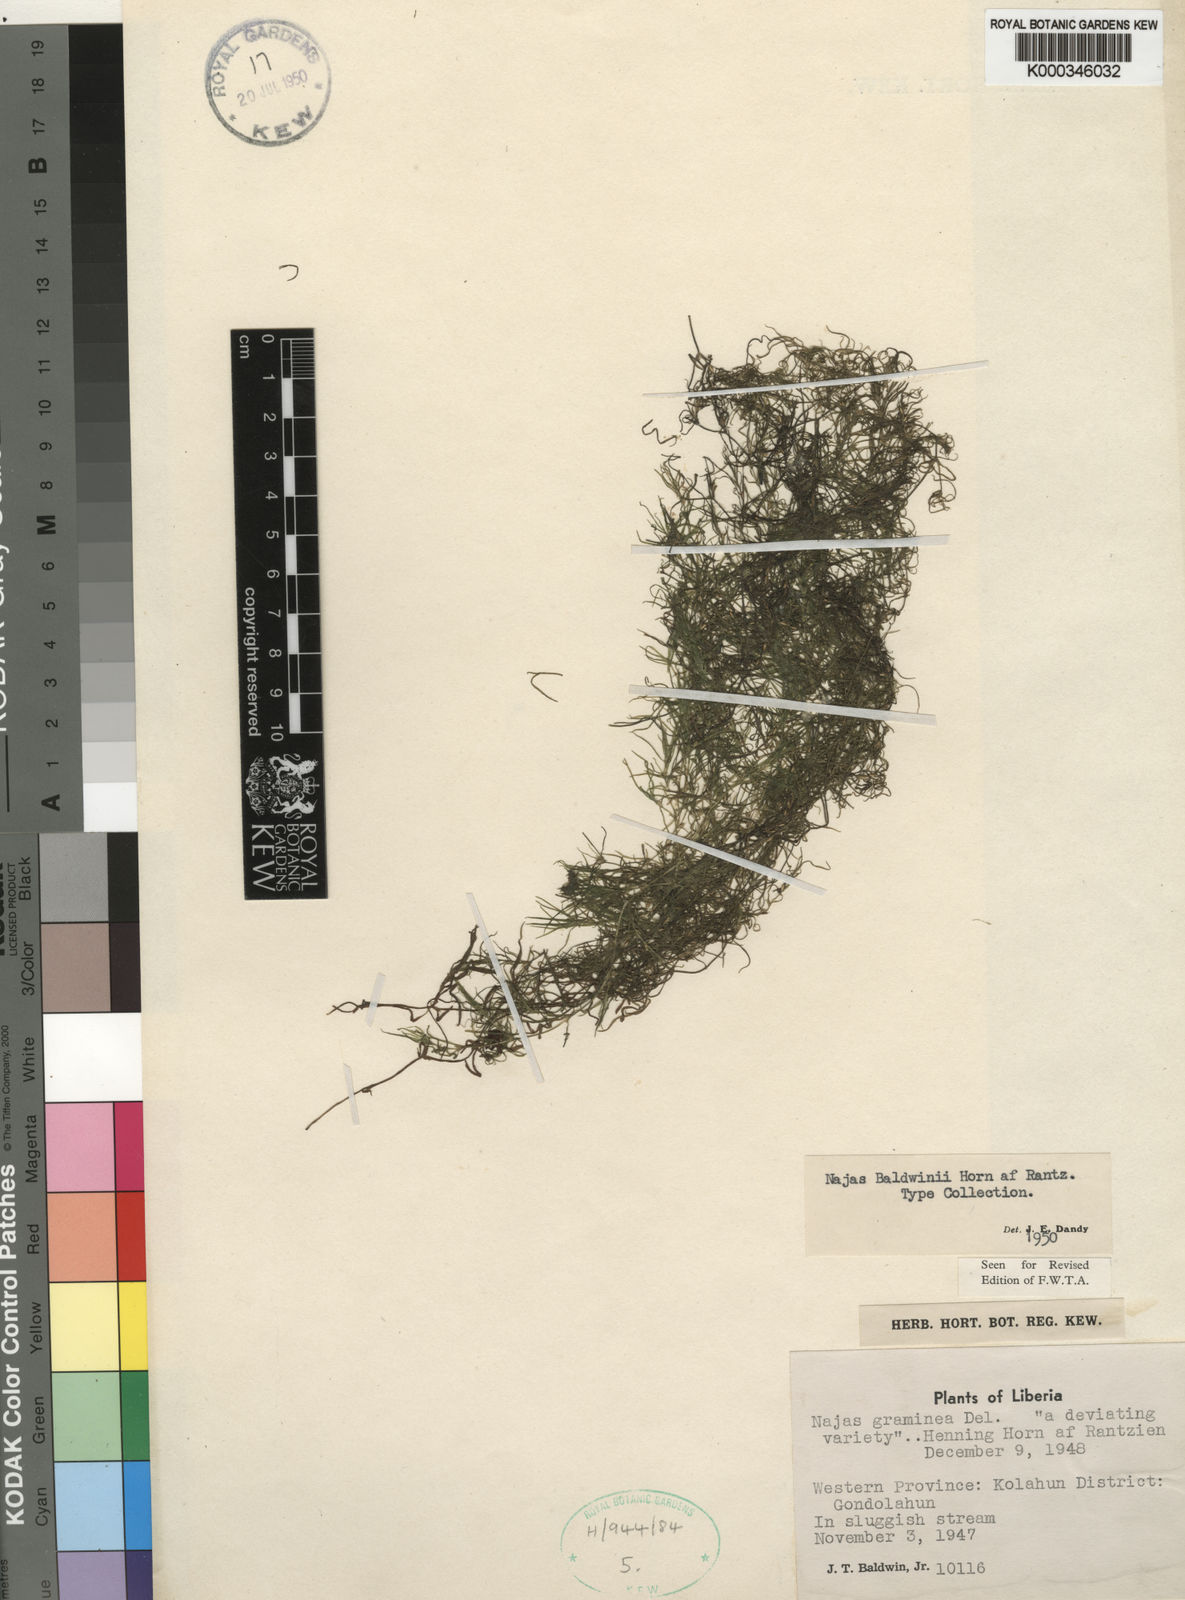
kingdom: Plantae
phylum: Tracheophyta
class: Liliopsida
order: Alismatales
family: Hydrocharitaceae
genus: Najas
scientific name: Najas baldwinii
